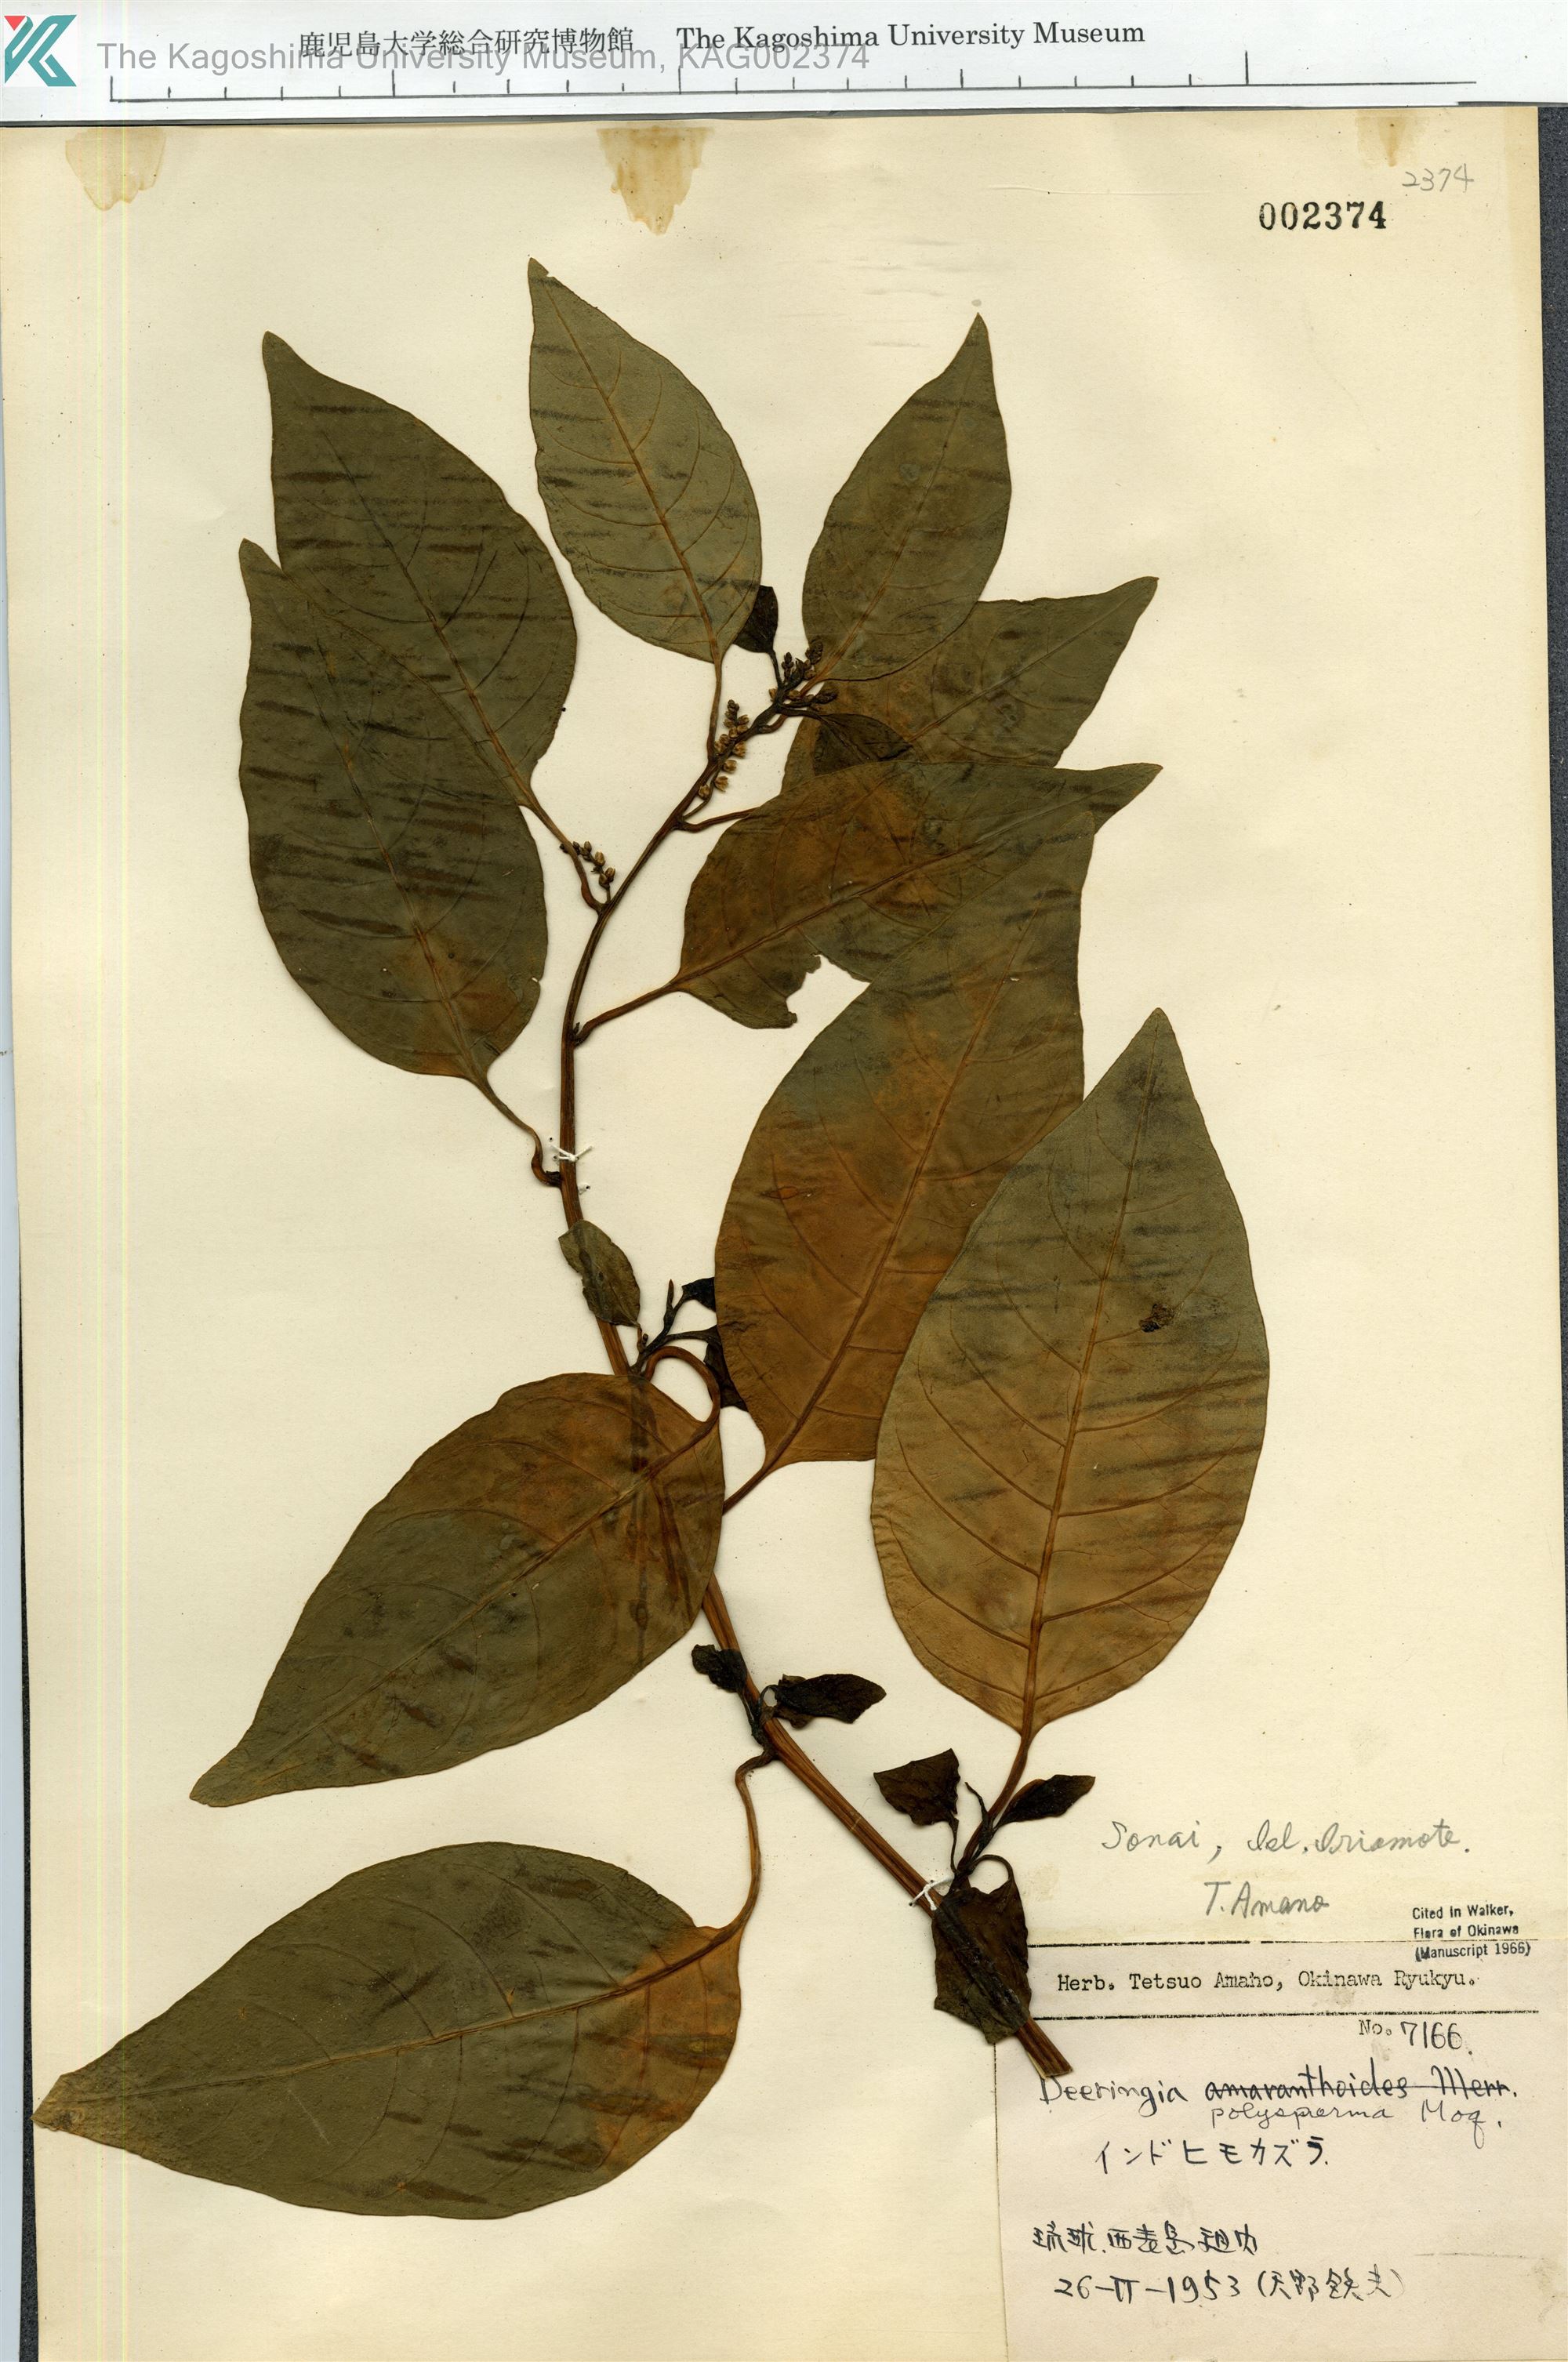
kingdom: Plantae
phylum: Tracheophyta
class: Magnoliopsida
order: Caryophyllales
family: Amaranthaceae
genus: Deeringia
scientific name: Deeringia polysperma
